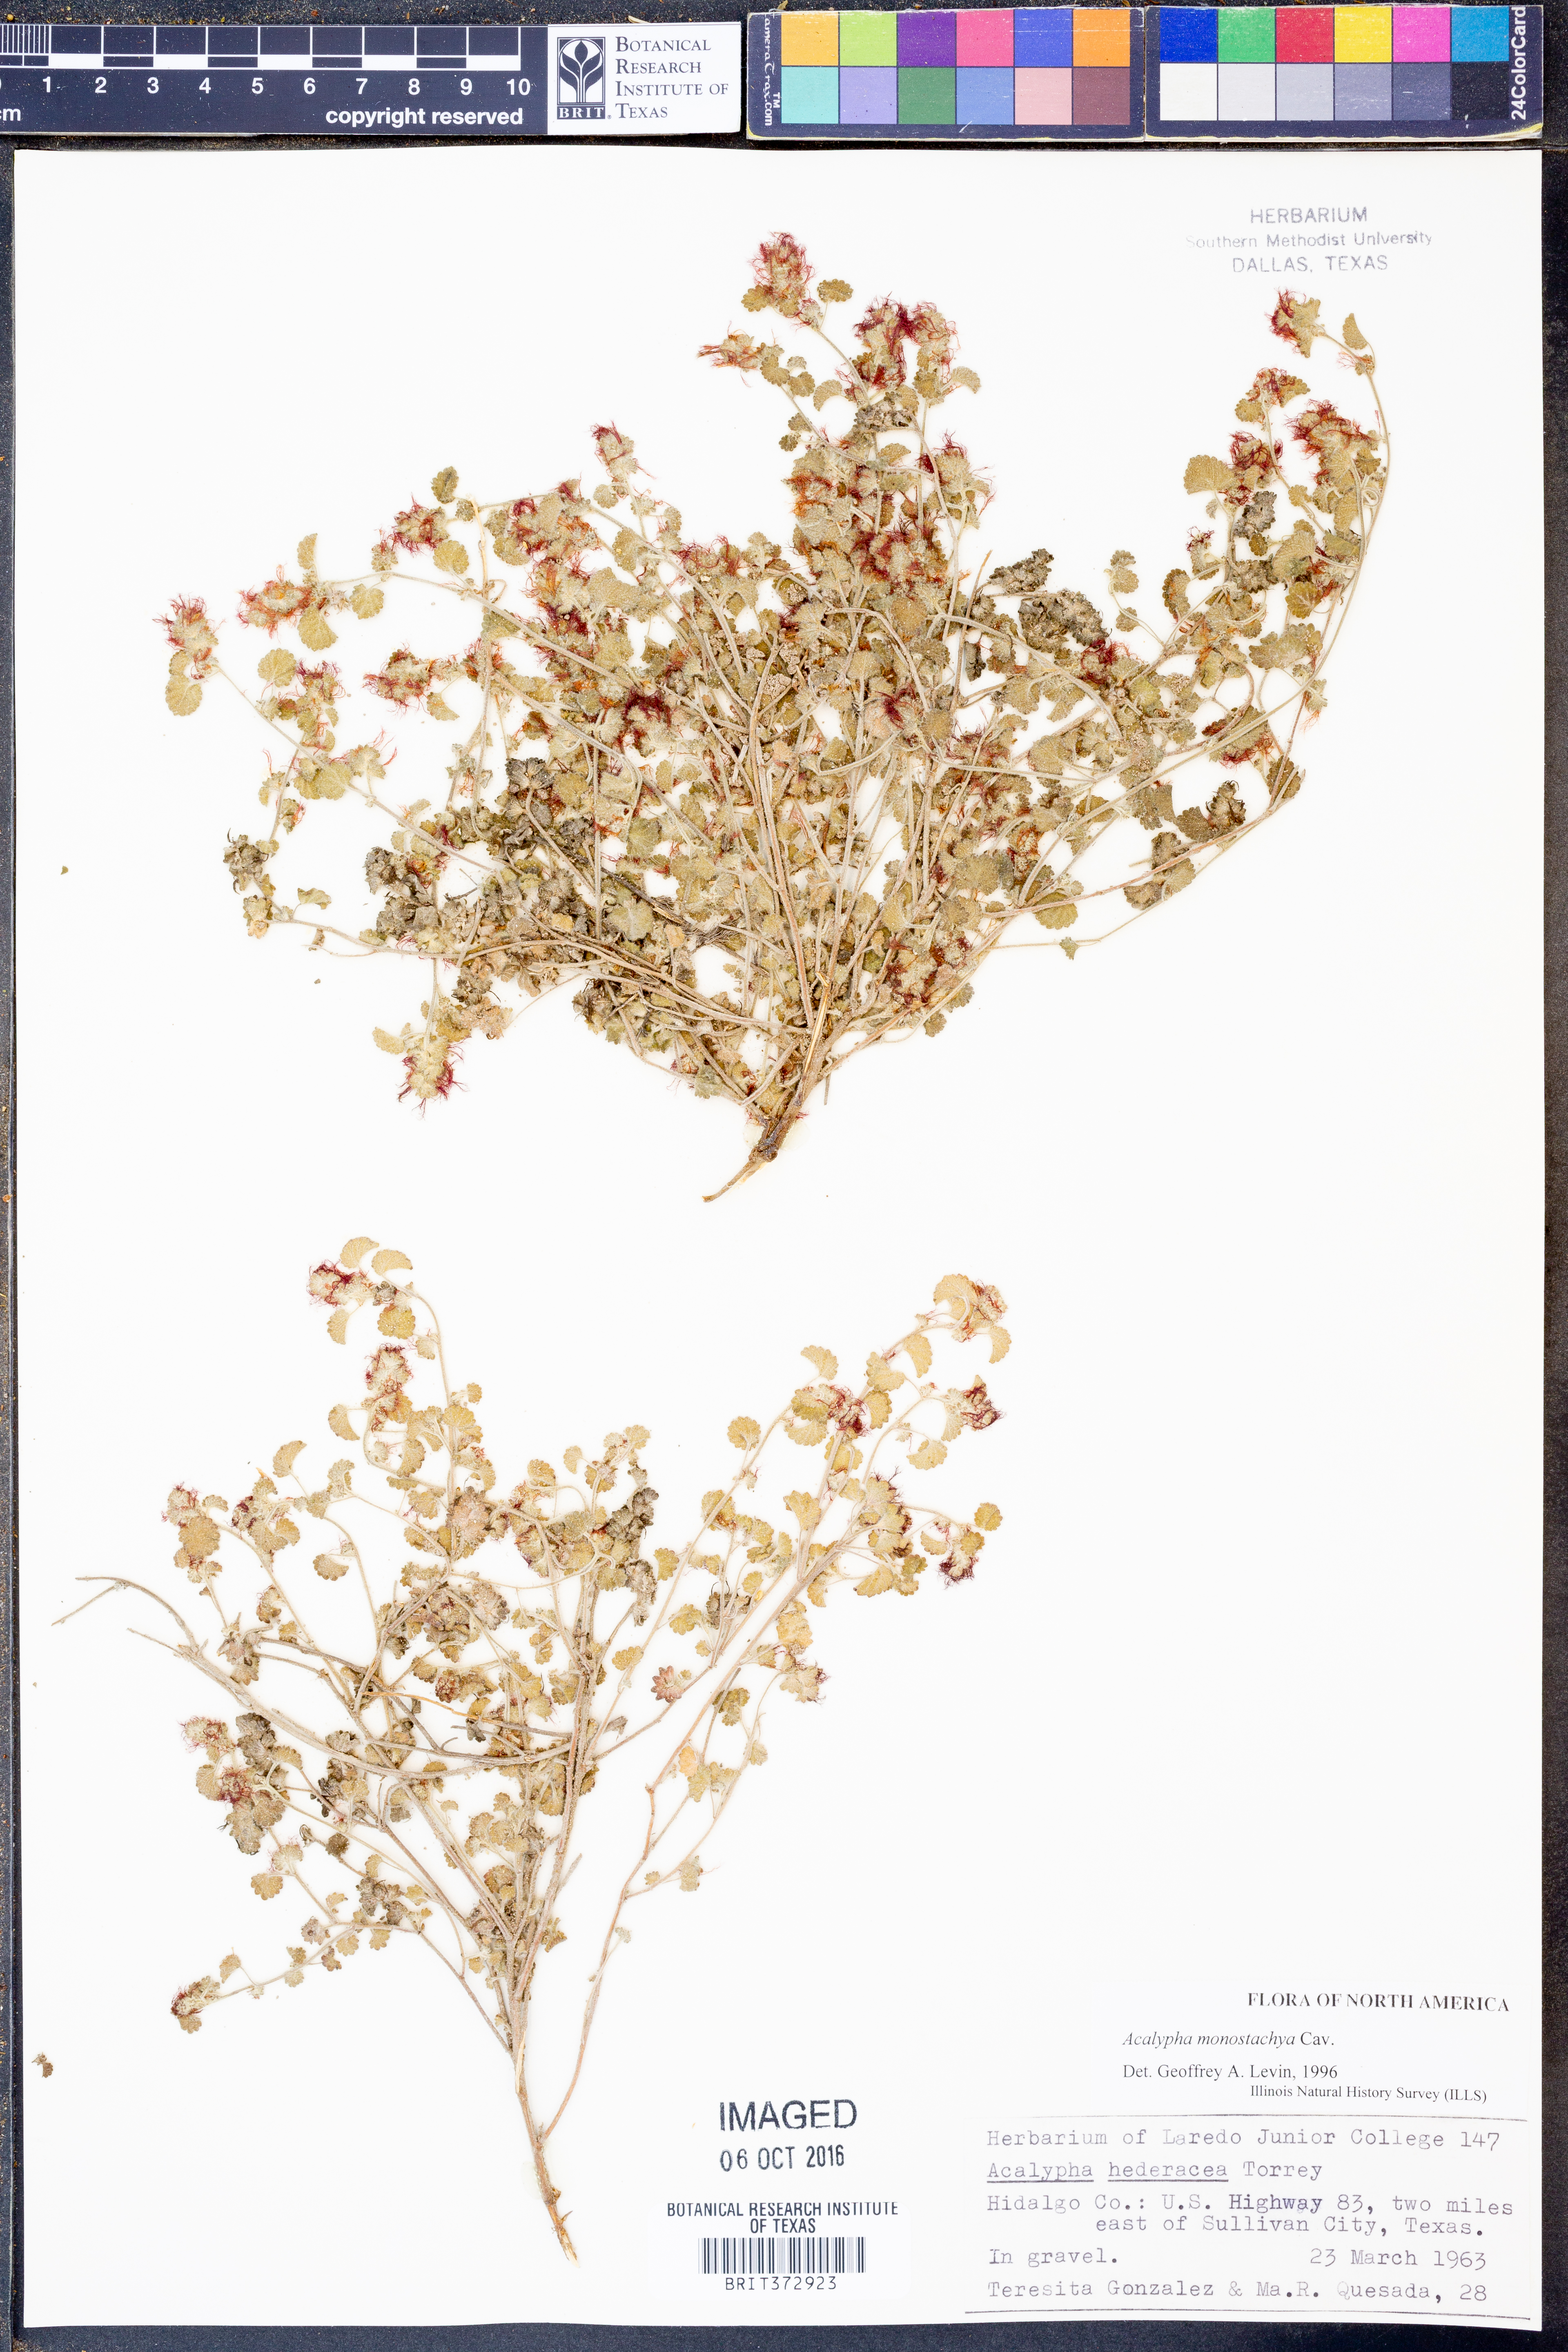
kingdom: Plantae
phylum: Tracheophyta
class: Magnoliopsida
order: Malpighiales
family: Euphorbiaceae
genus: Acalypha
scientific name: Acalypha monostachya
